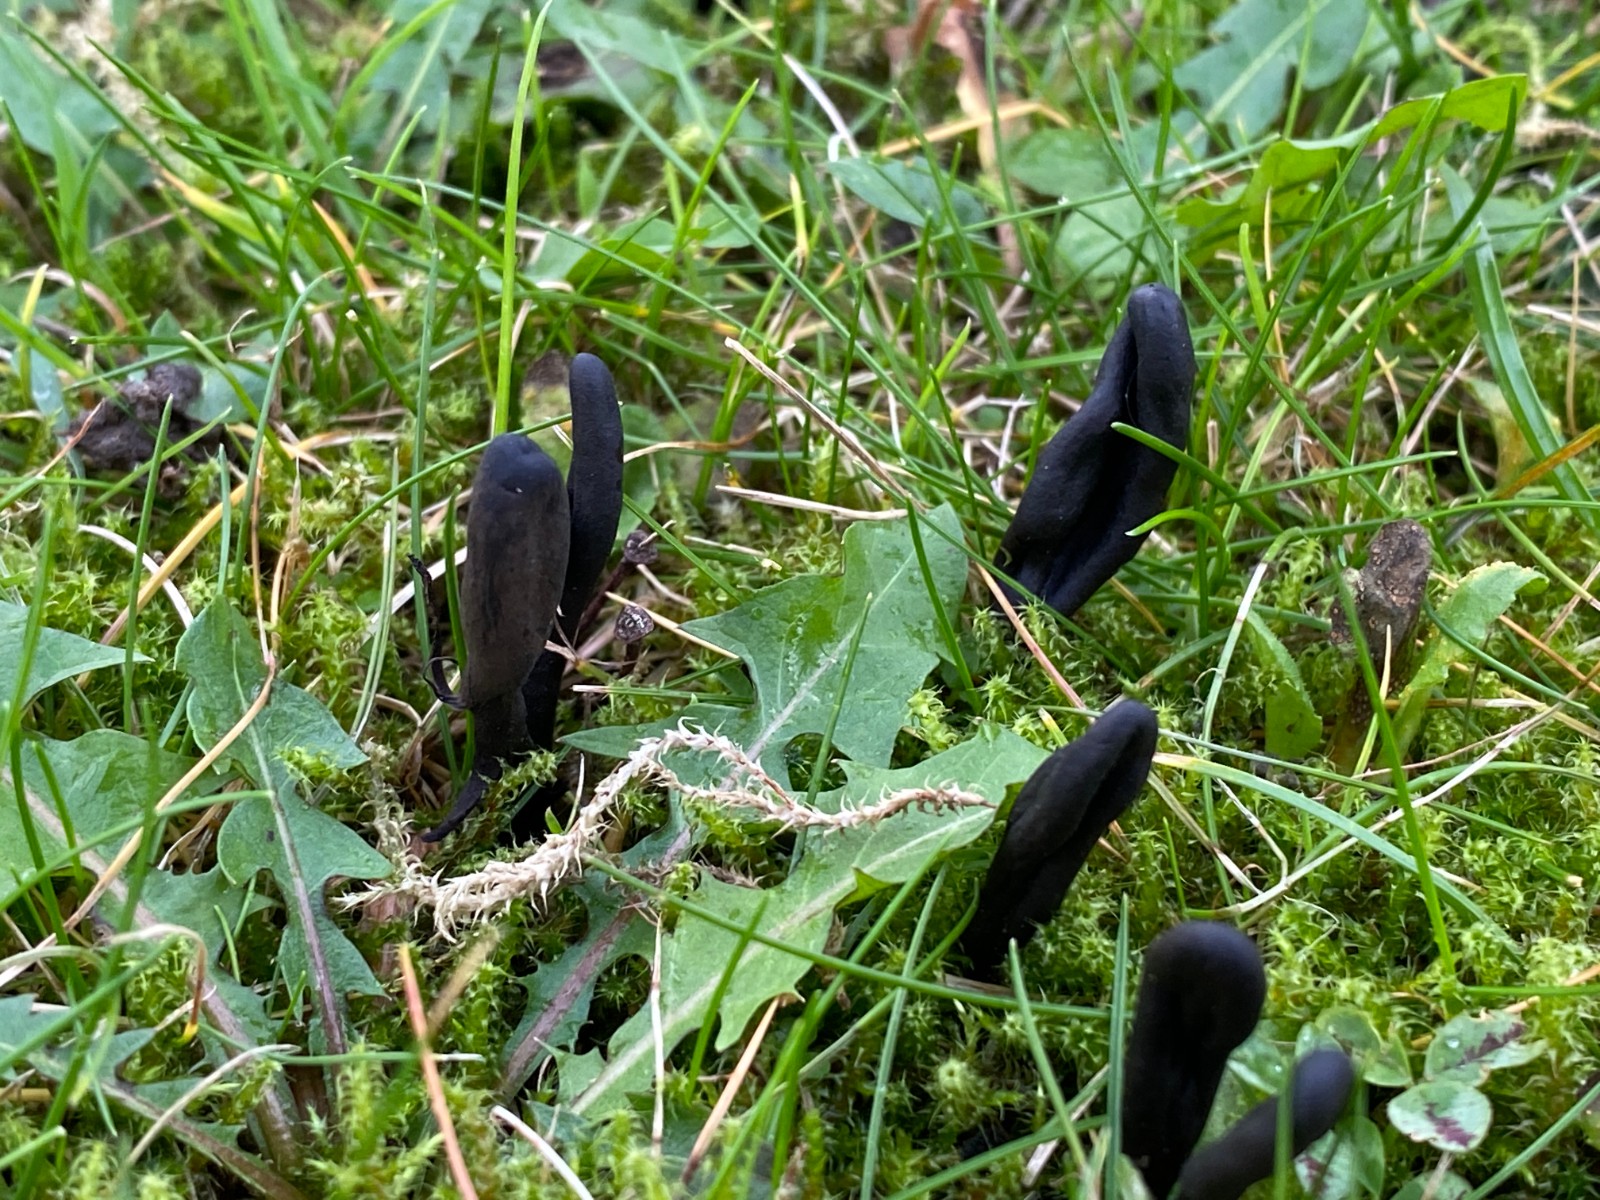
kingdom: Fungi
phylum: Ascomycota
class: Geoglossomycetes
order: Geoglossales
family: Geoglossaceae
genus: Geoglossum
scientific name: Geoglossum
